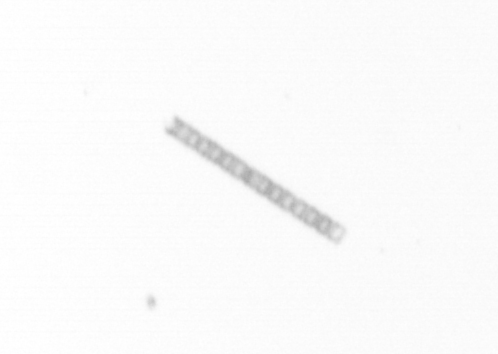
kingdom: Chromista
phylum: Ochrophyta
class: Bacillariophyceae
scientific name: Bacillariophyceae
